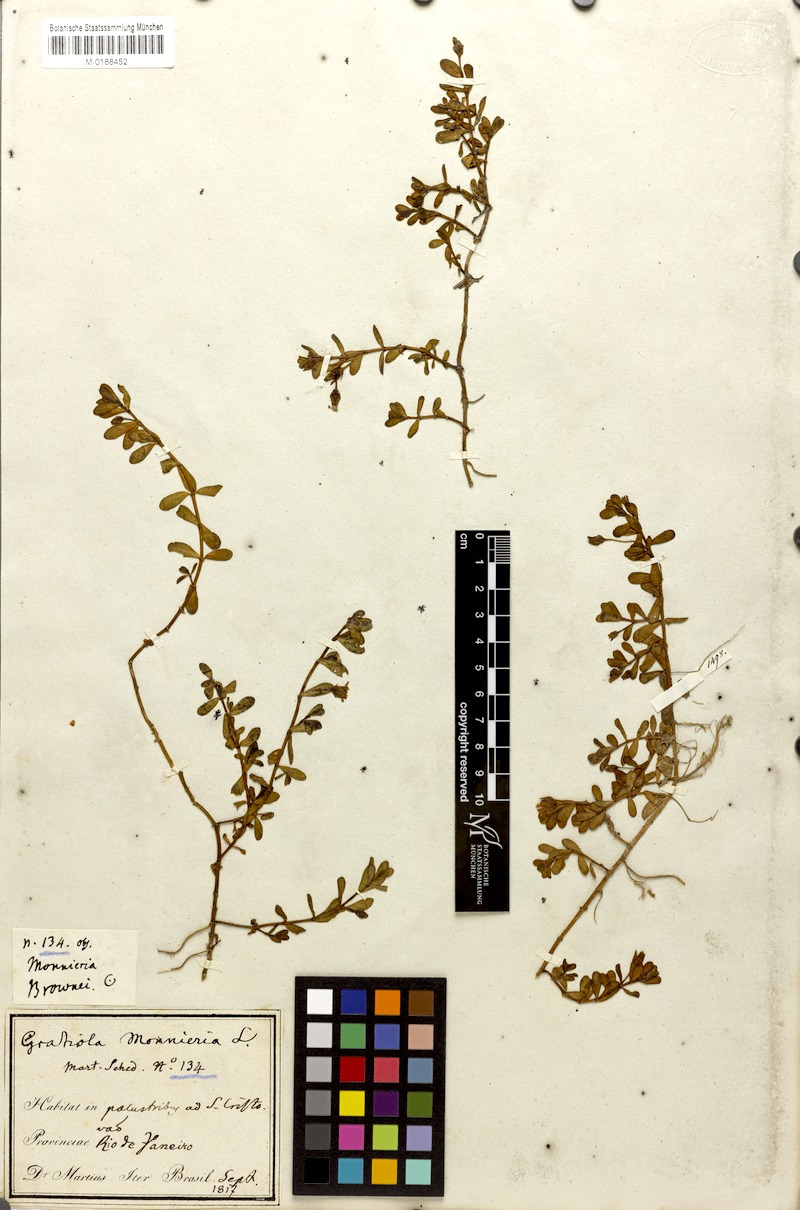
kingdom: Plantae
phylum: Tracheophyta
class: Magnoliopsida
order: Lamiales
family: Plantaginaceae
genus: Bacopa
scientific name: Bacopa monnieri
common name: Indian-pennywort
